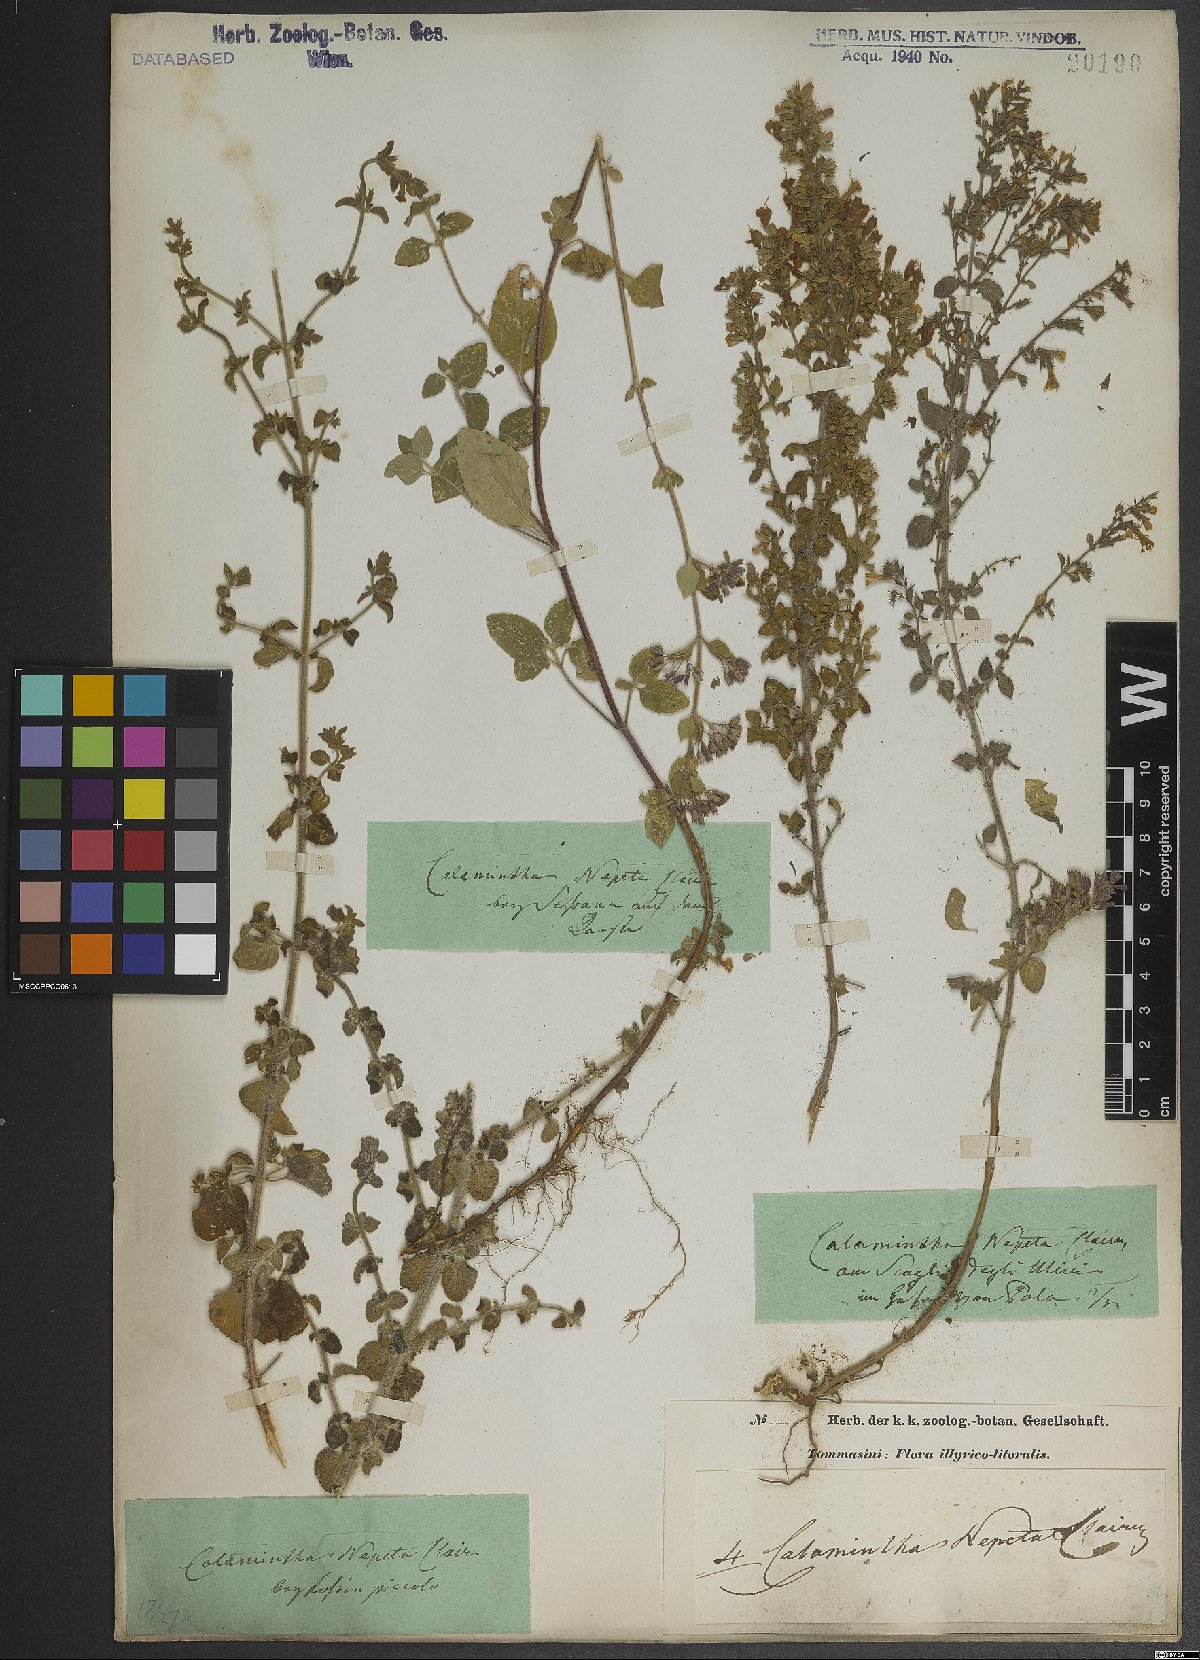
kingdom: Plantae
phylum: Tracheophyta
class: Magnoliopsida
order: Lamiales
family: Lamiaceae
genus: Clinopodium
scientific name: Clinopodium nepeta
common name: Lesser calamint
